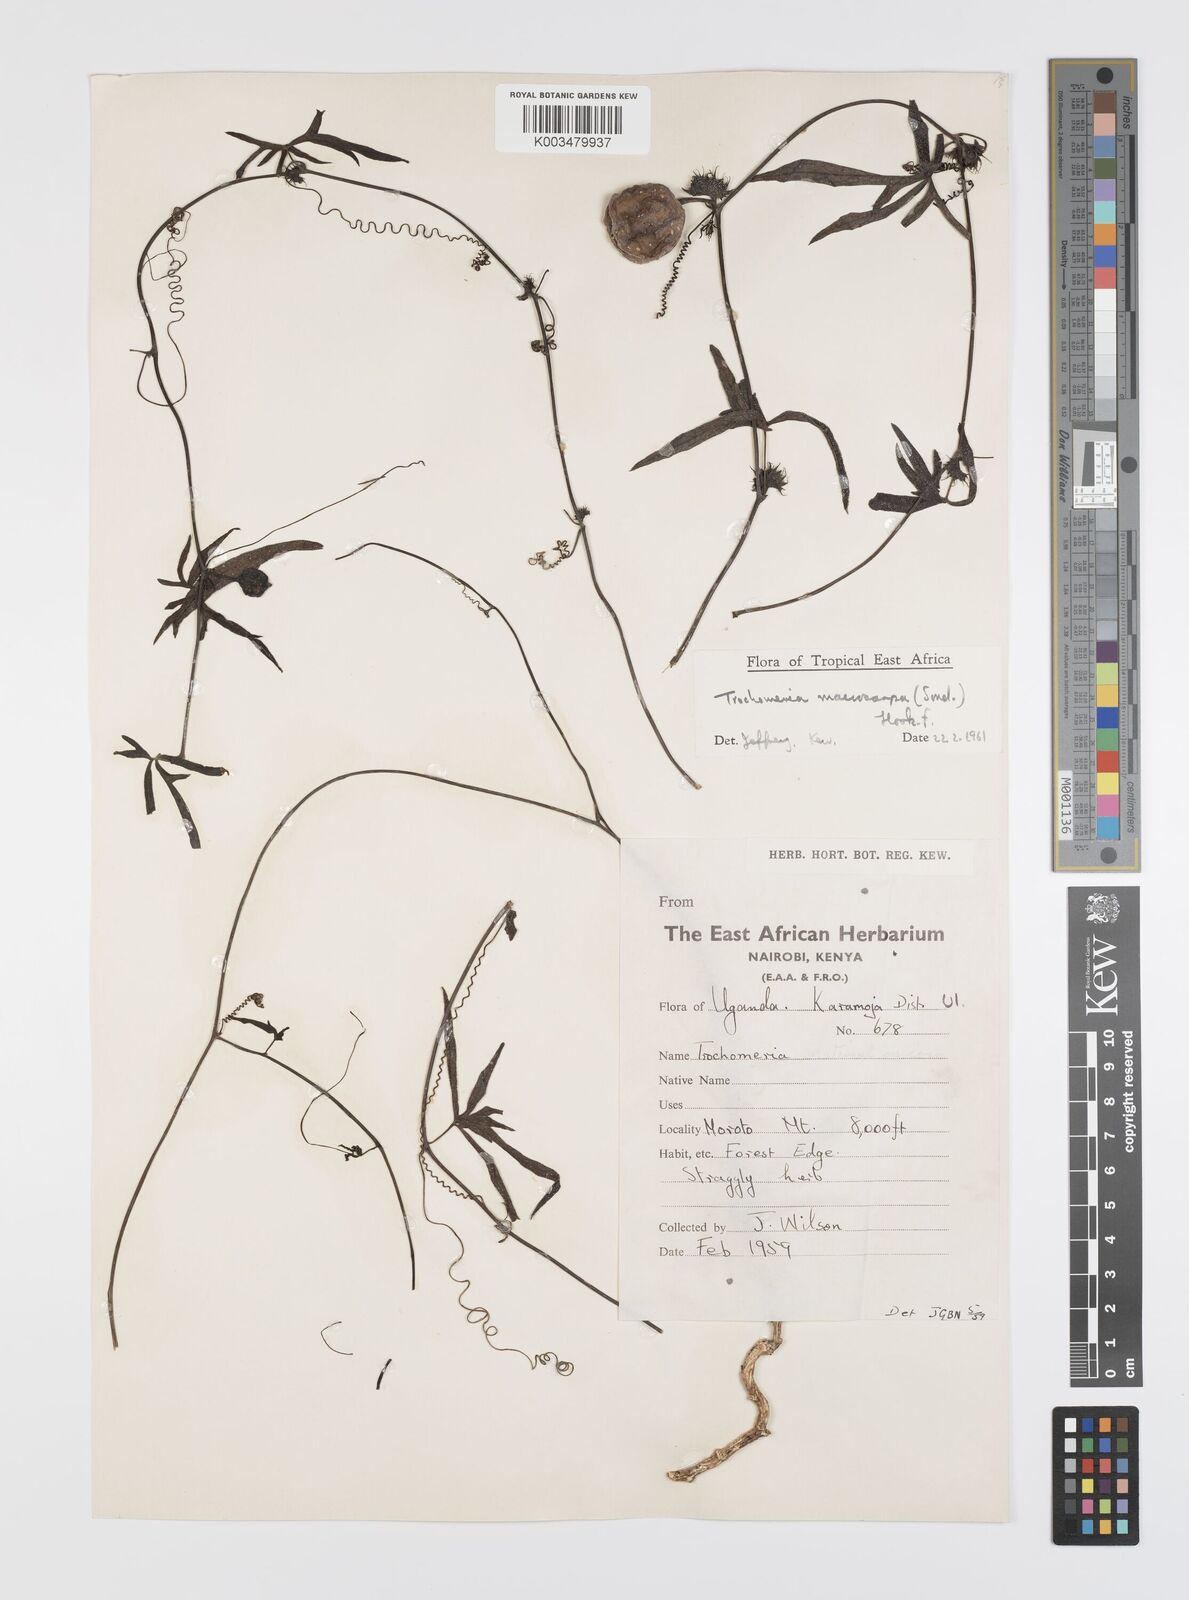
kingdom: Plantae
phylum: Tracheophyta
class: Magnoliopsida
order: Cucurbitales
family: Cucurbitaceae
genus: Trochomeria
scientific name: Trochomeria macrocarpa
